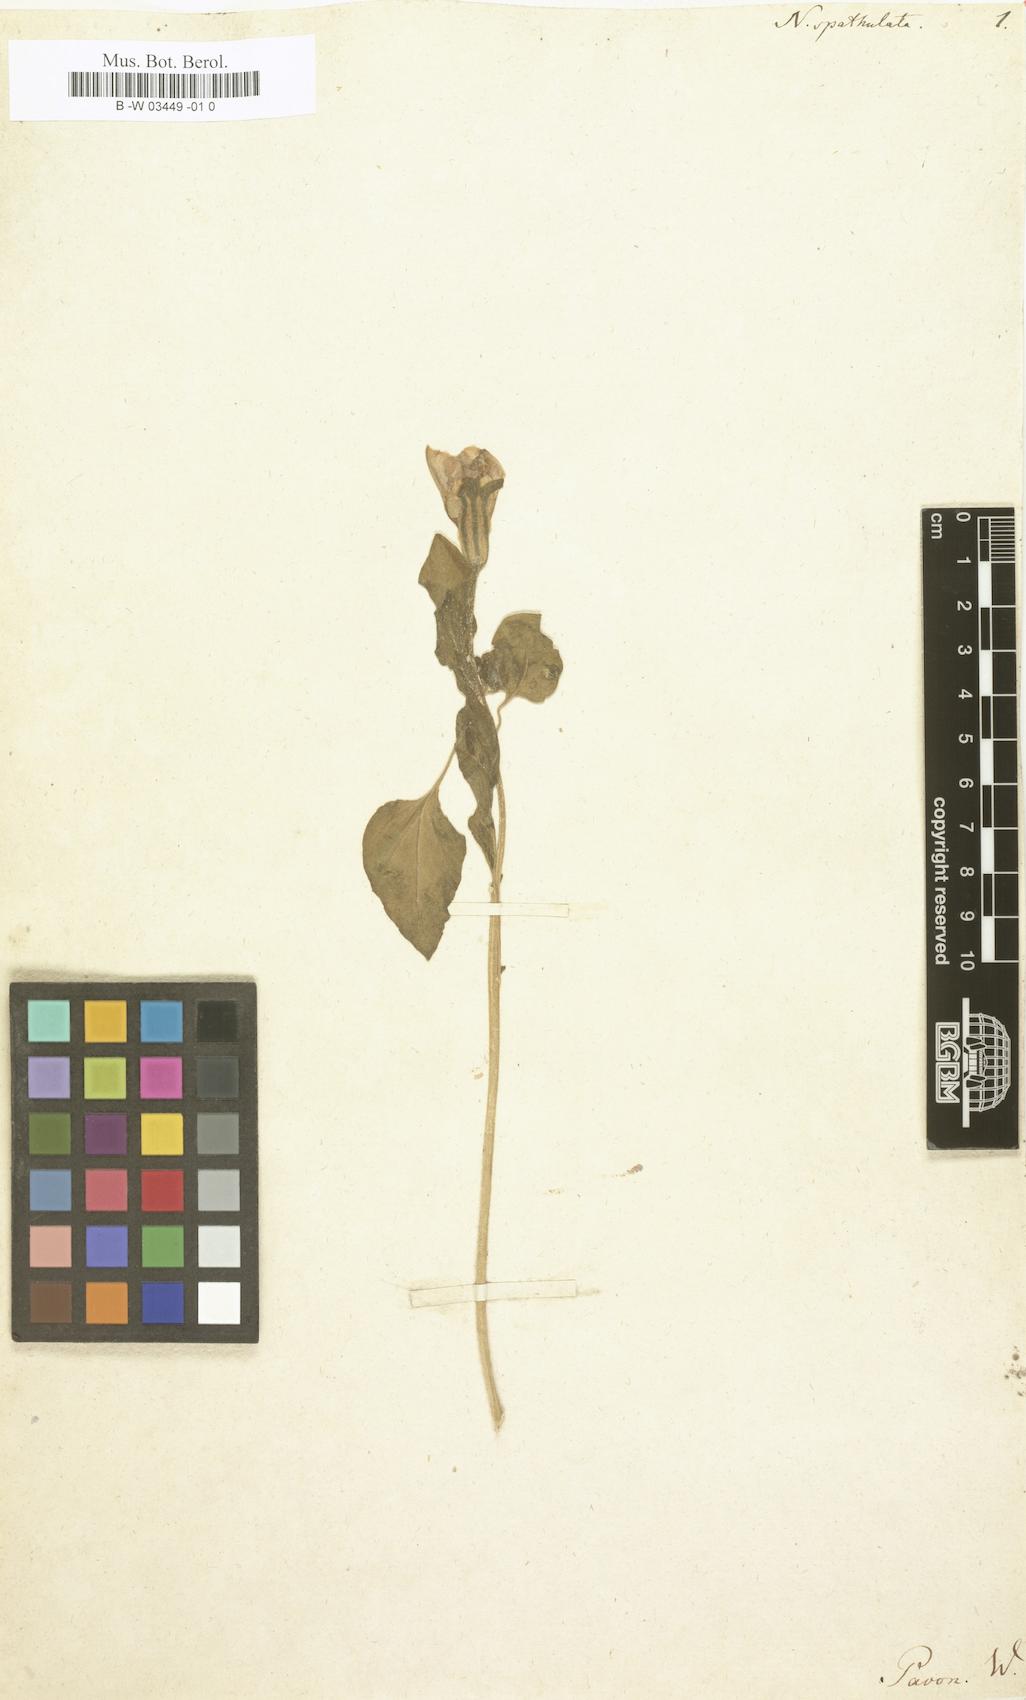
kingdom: Plantae
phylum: Tracheophyta
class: Magnoliopsida
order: Solanales
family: Solanaceae
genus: Nolana
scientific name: Nolana humifusa
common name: Trailing chilean-bellflower
